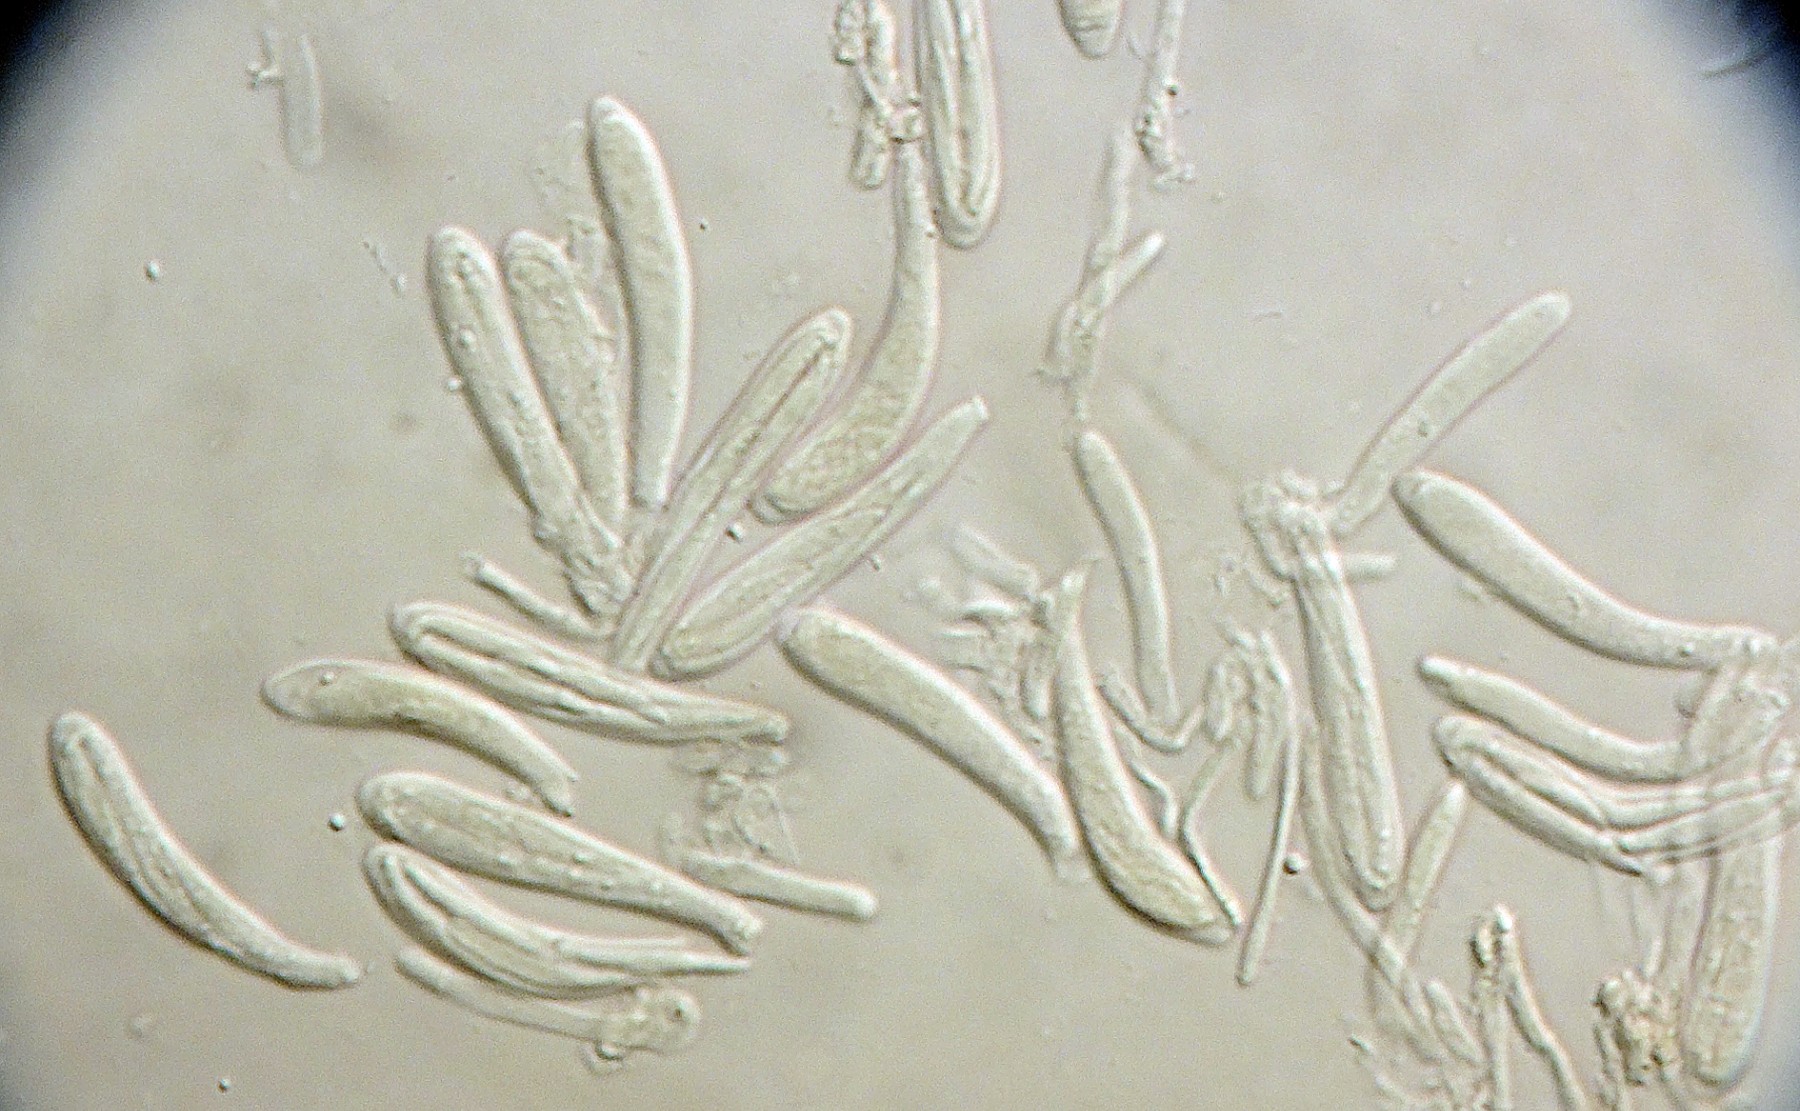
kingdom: Fungi
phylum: Ascomycota
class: Leotiomycetes
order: Helotiales
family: Pezizellaceae
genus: Calycellina
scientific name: Calycellina lachnobrachya
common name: firesporet hårskive
